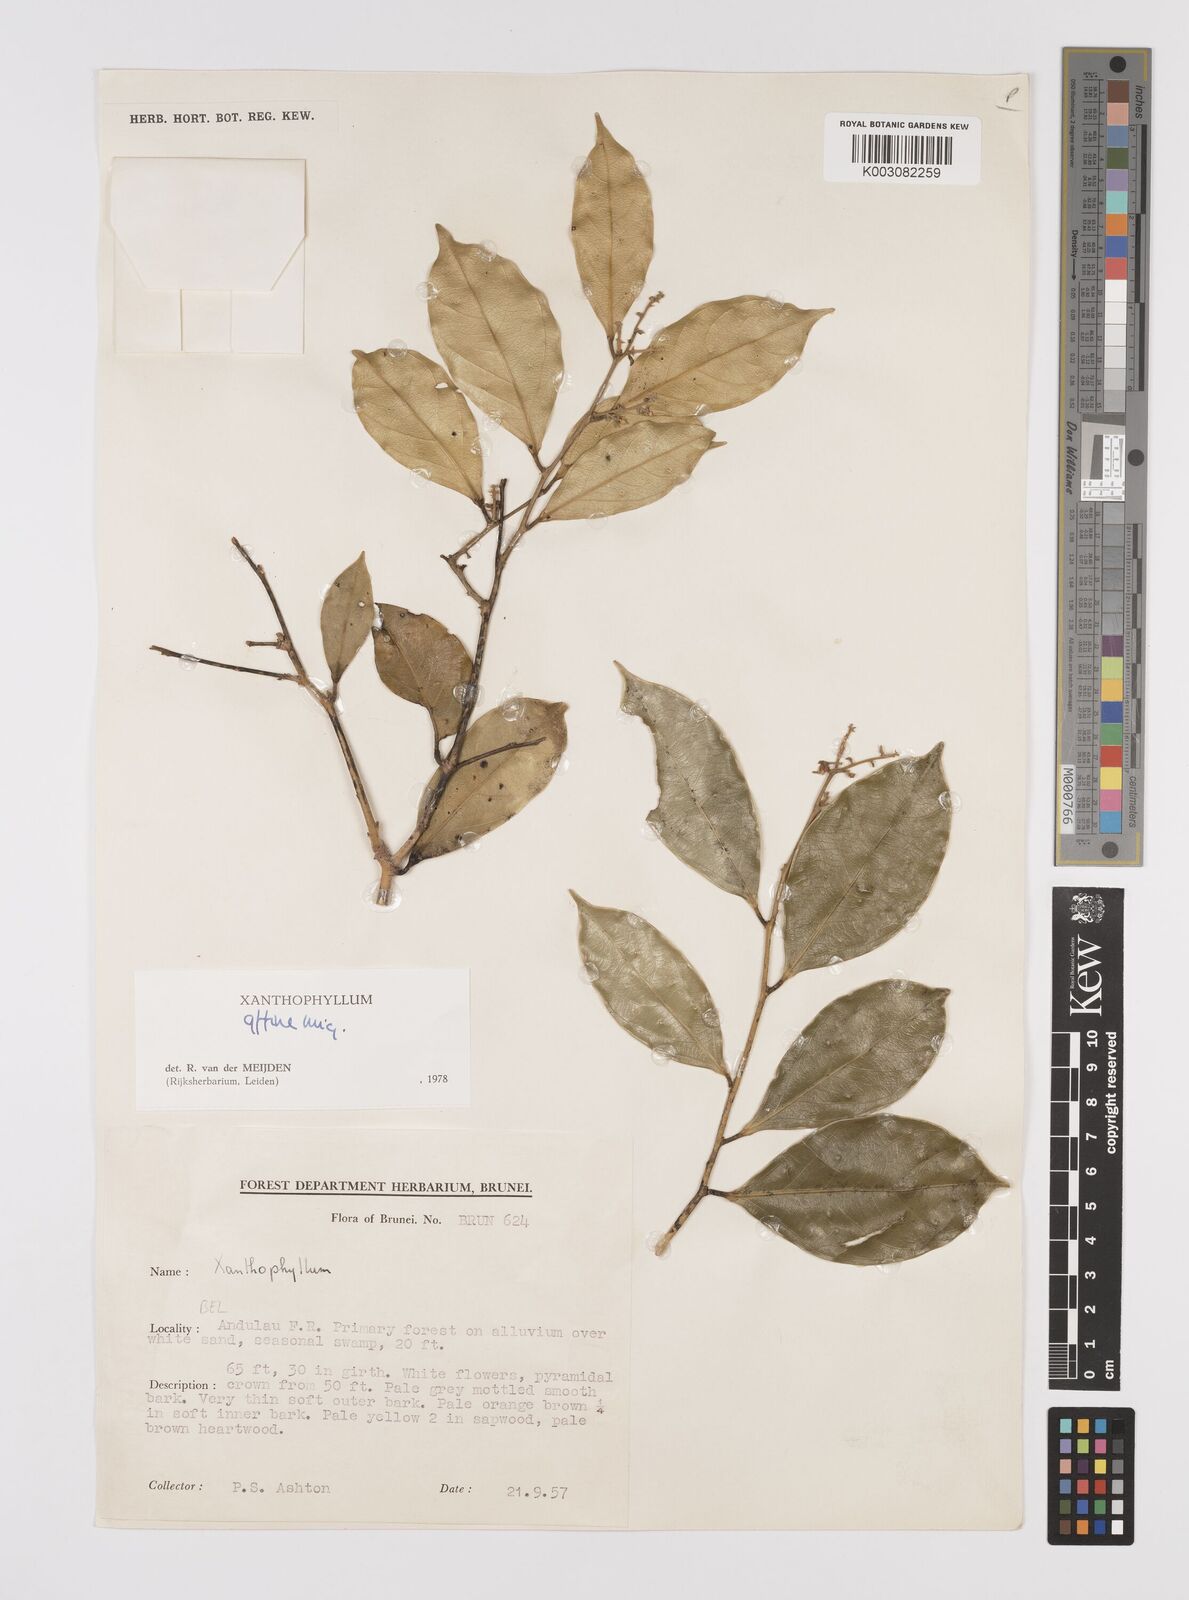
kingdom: Plantae
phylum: Tracheophyta
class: Magnoliopsida
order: Fabales
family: Polygalaceae
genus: Xanthophyllum
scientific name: Xanthophyllum flavescens
